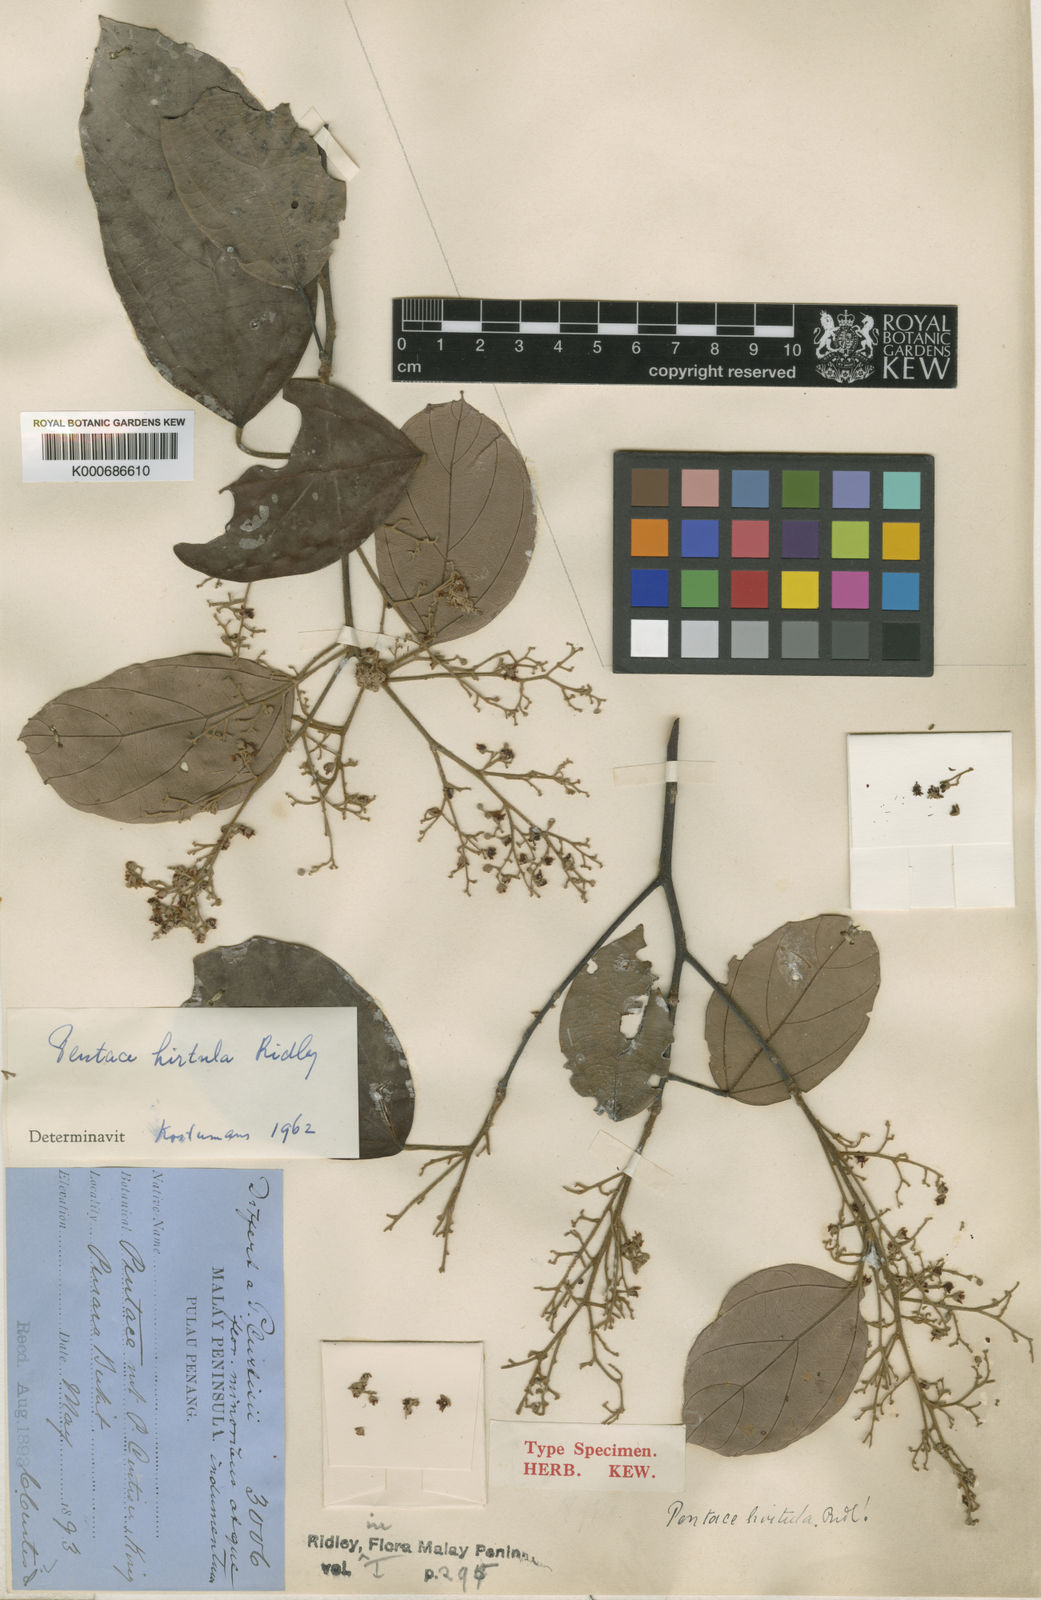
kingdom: Plantae
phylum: Tracheophyta
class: Magnoliopsida
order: Malvales
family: Malvaceae
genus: Pentace
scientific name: Pentace hirtula
